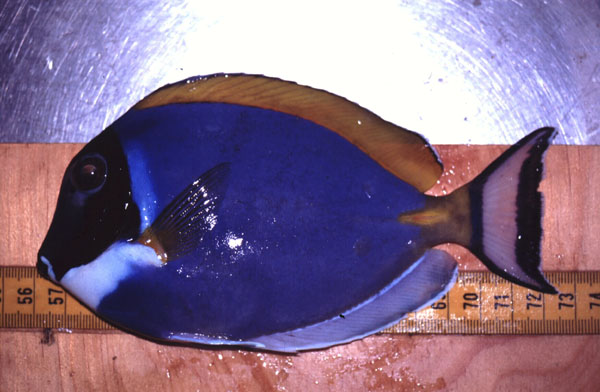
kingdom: Animalia
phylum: Chordata
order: Perciformes
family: Acanthuridae
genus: Acanthurus
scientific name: Acanthurus leucosternon
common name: Blue surgeonfish
